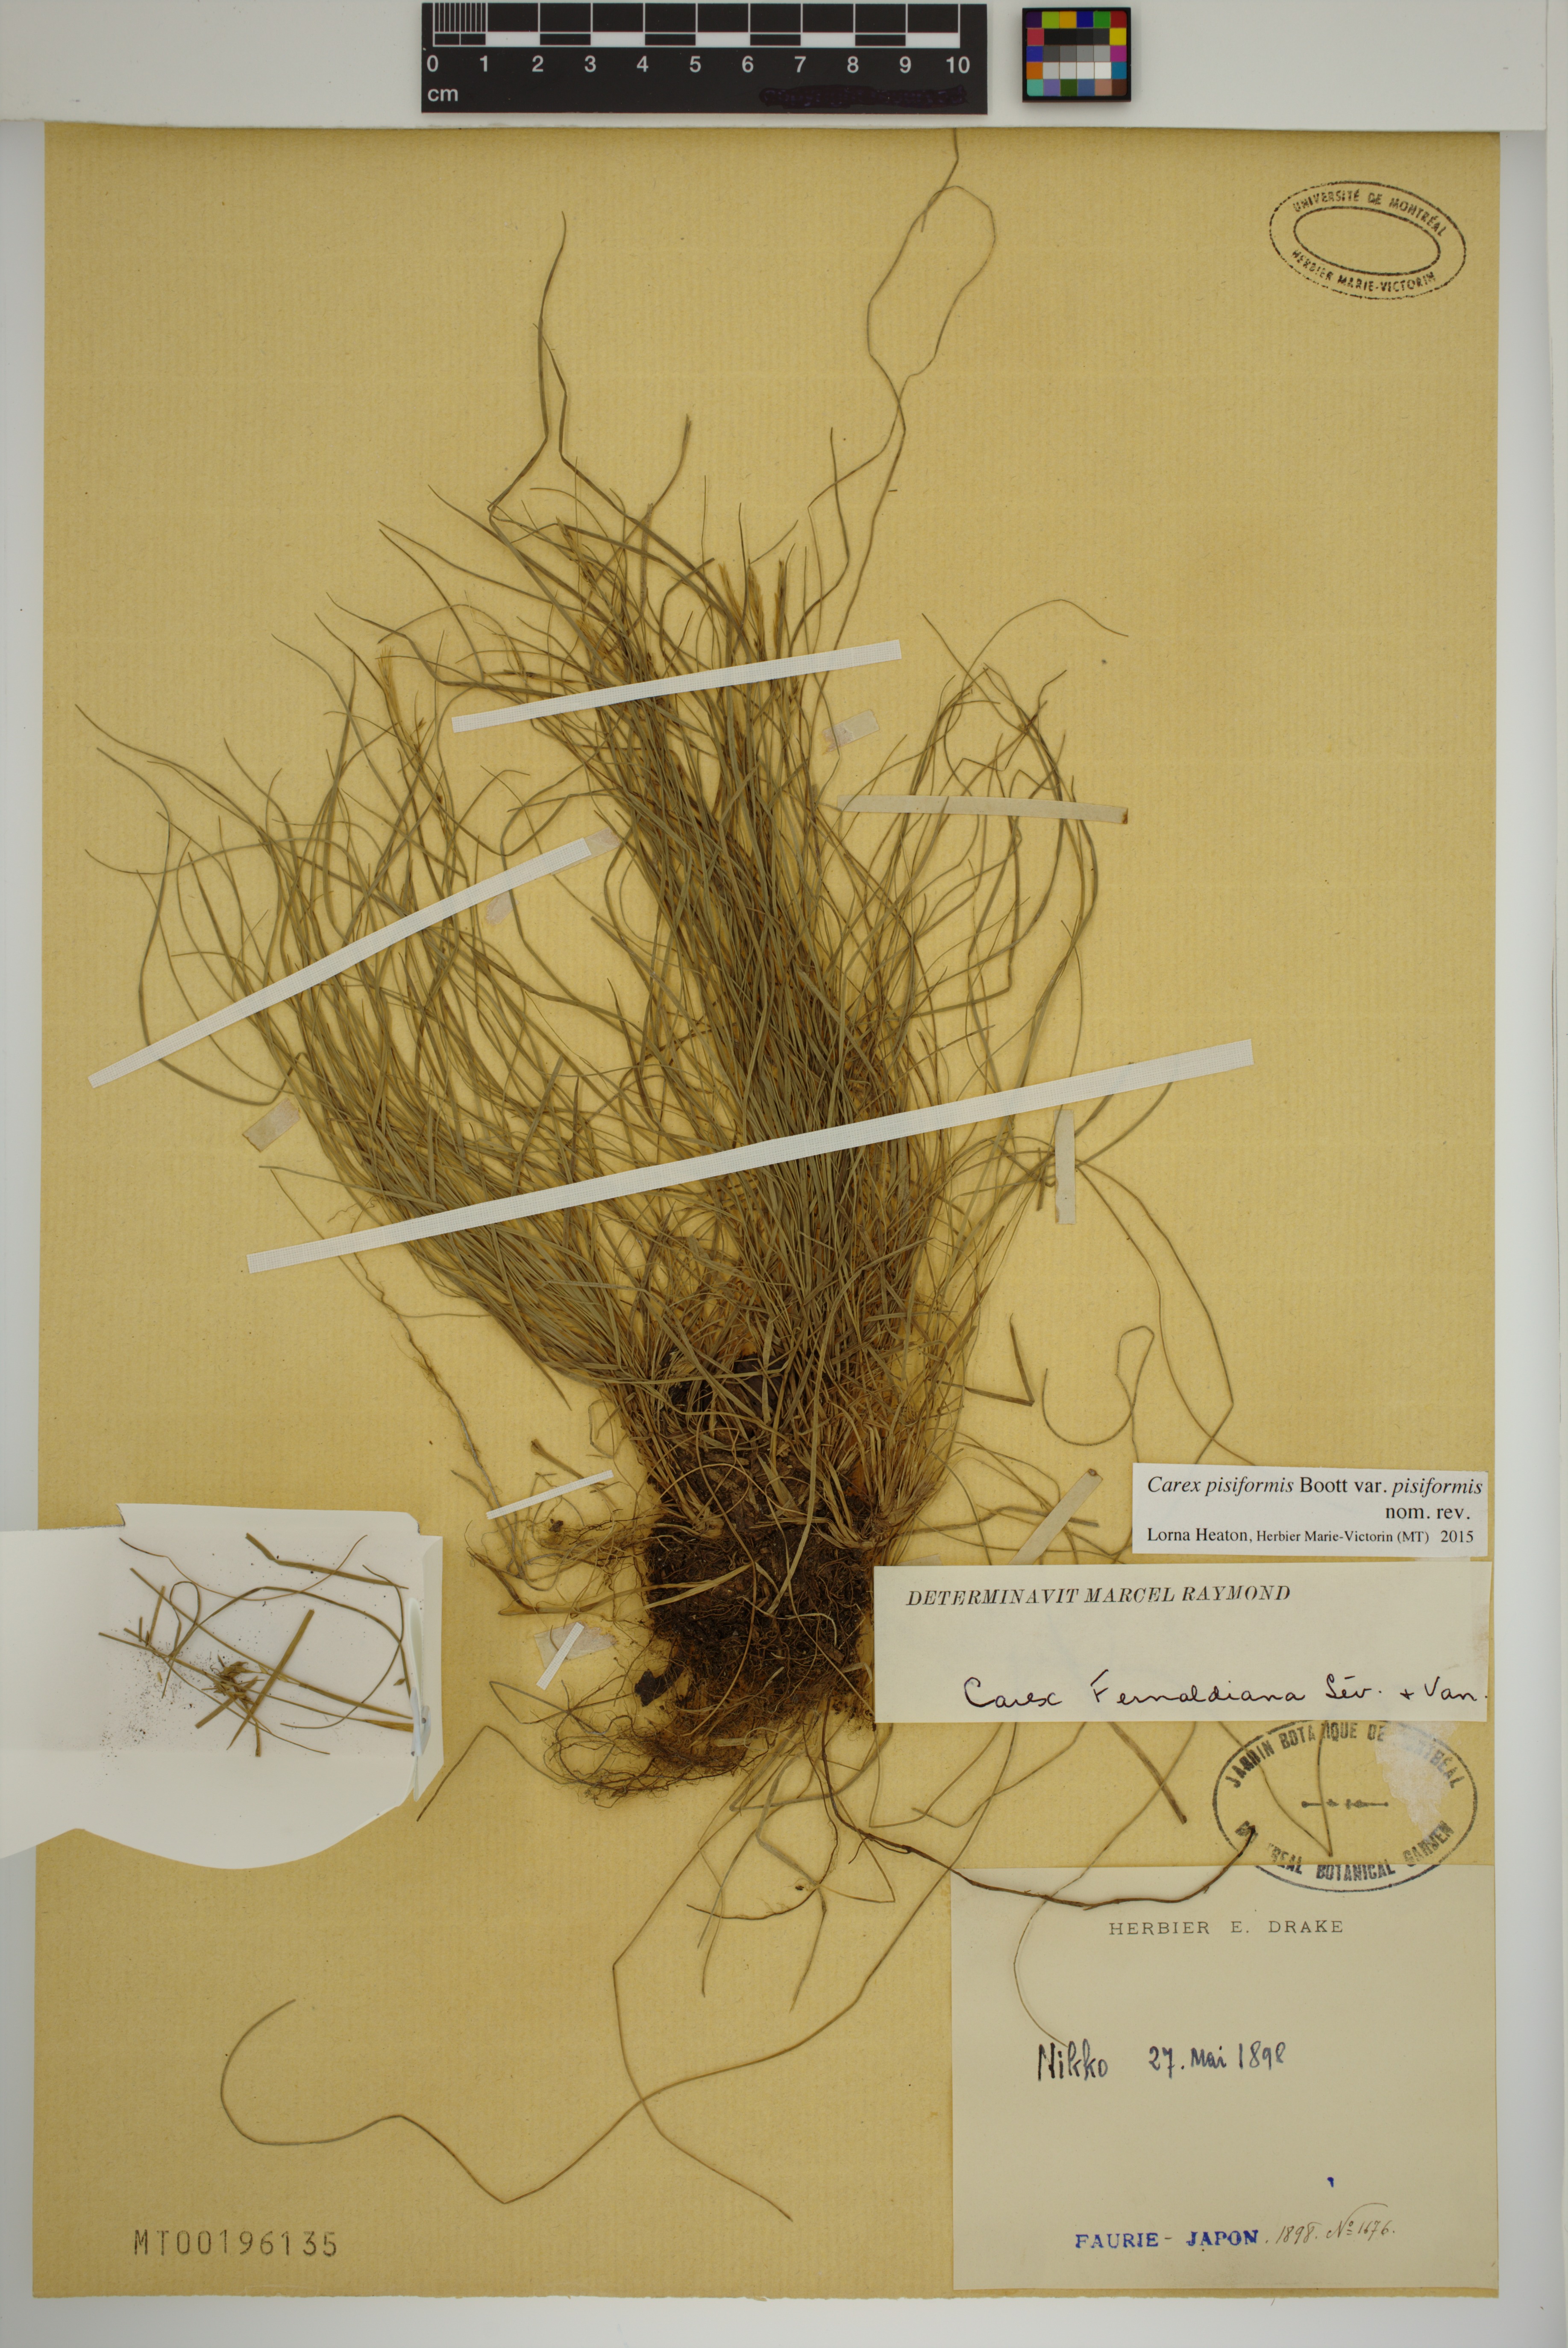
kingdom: Plantae
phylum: Tracheophyta
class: Liliopsida
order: Poales
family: Cyperaceae
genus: Carex
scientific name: Carex pisiformis
